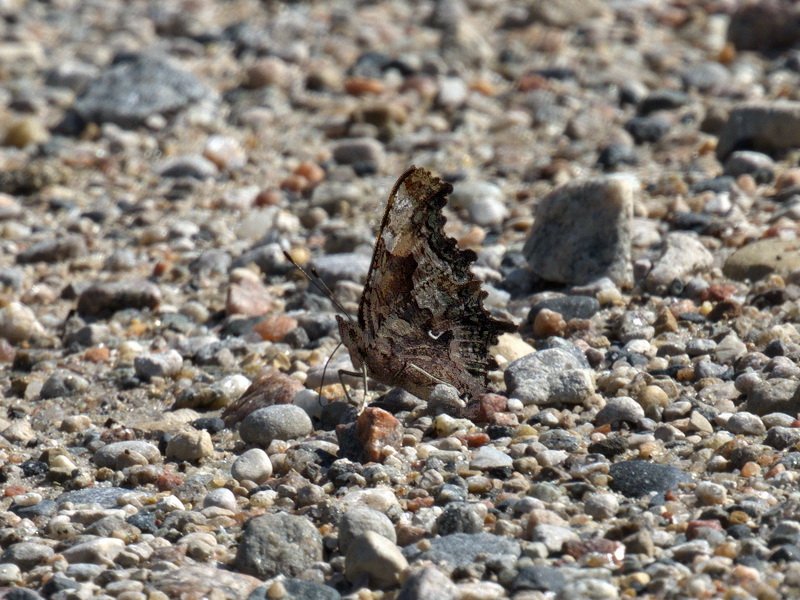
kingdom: Animalia
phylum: Arthropoda
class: Insecta
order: Lepidoptera
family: Nymphalidae
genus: Polygonia
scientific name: Polygonia faunus
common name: Green Comma
